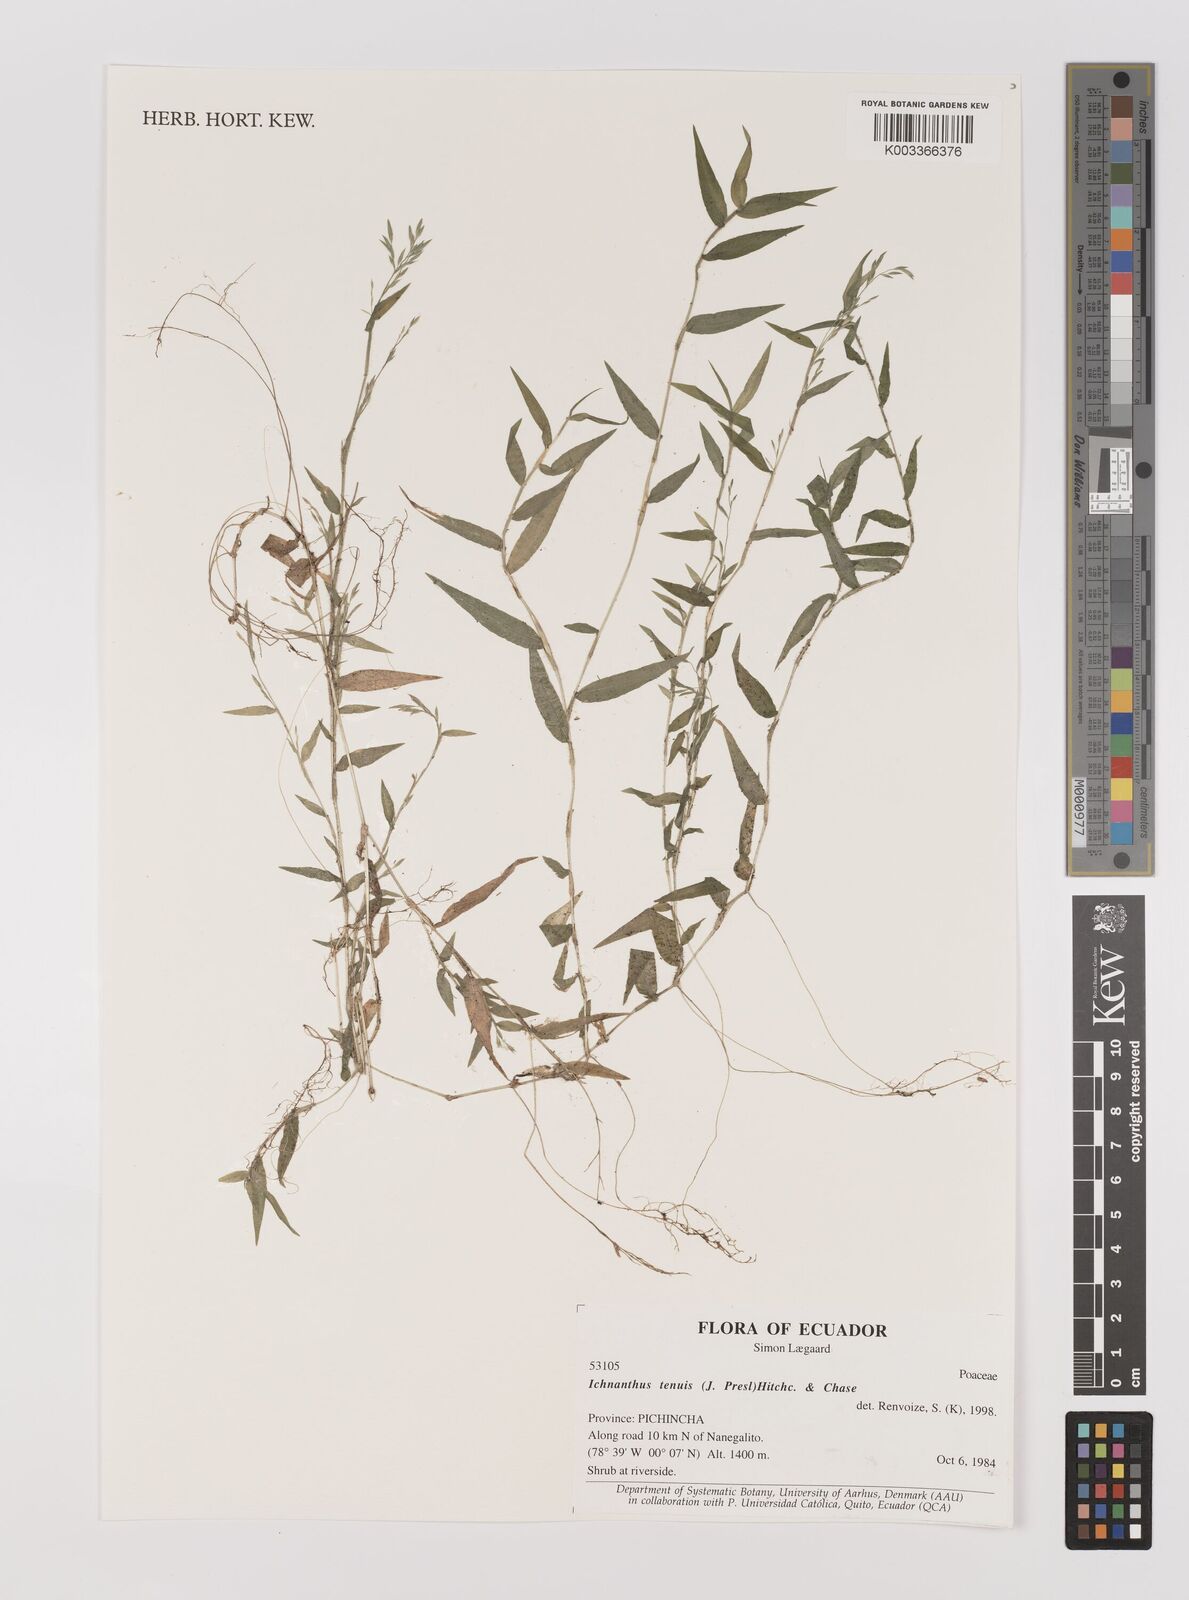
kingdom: Plantae
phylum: Tracheophyta
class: Liliopsida
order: Poales
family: Poaceae
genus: Ichnanthus
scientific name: Ichnanthus tenuis
